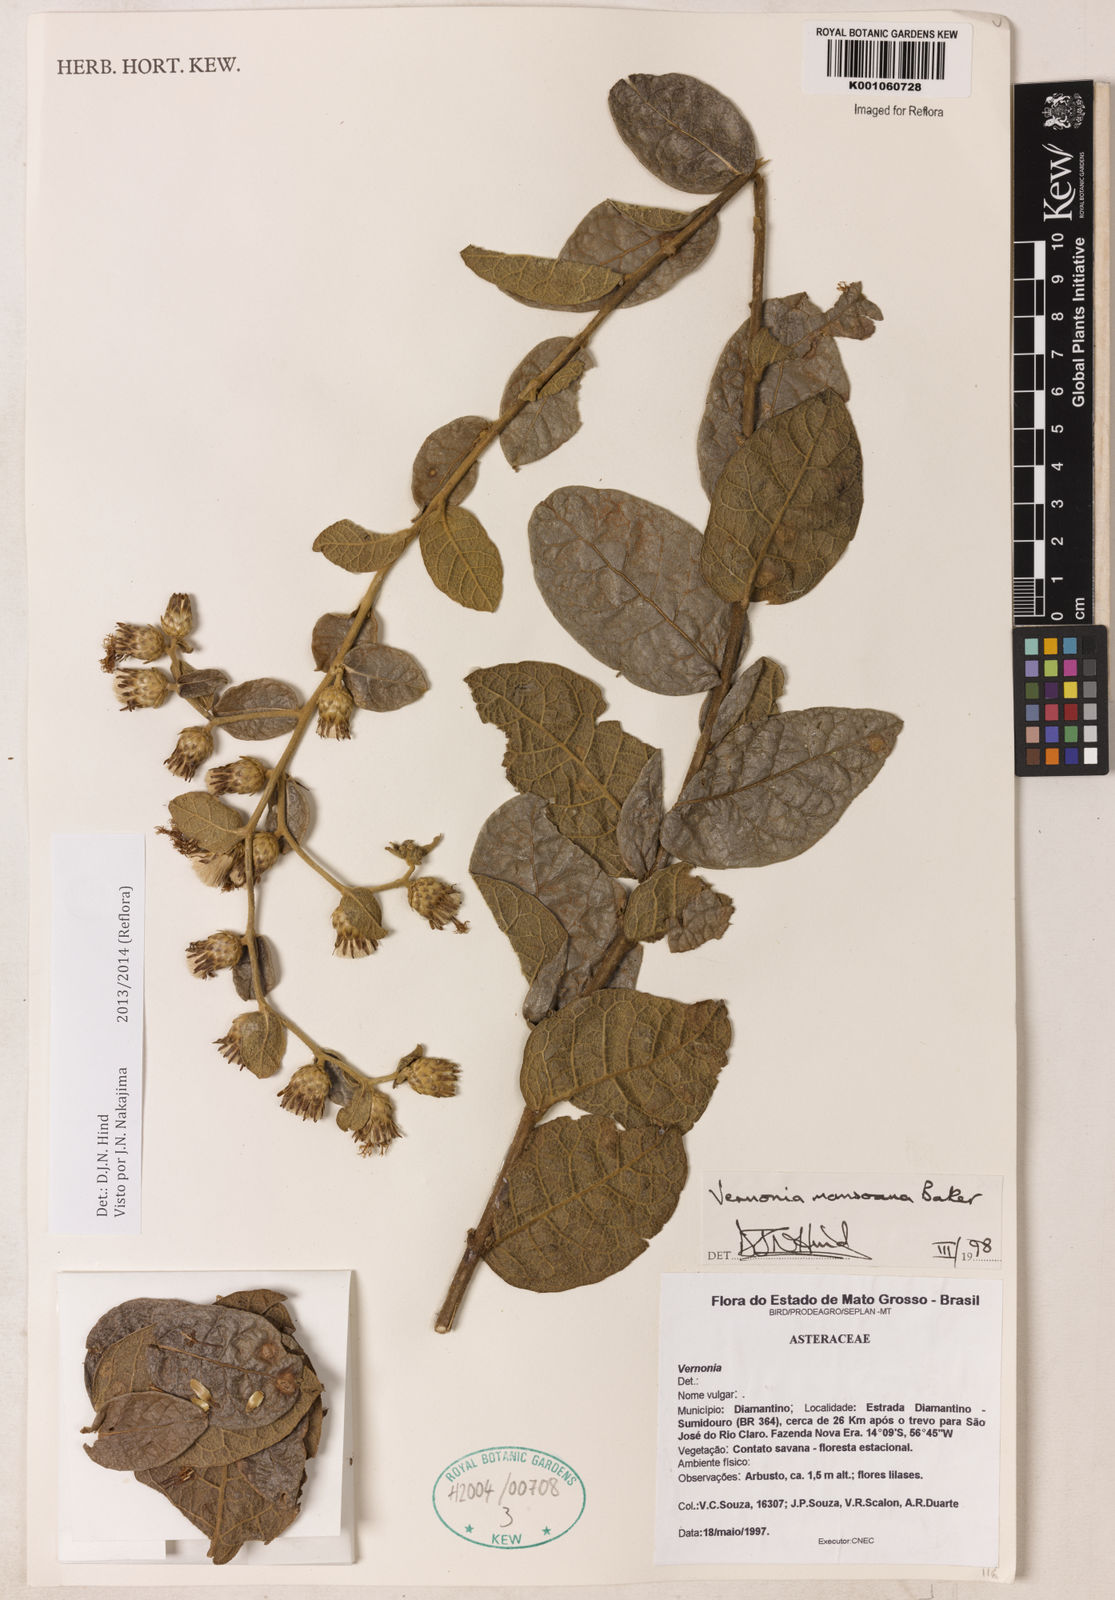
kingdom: Plantae
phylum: Tracheophyta
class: Magnoliopsida
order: Asterales
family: Asteraceae
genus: Lessingianthus
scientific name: Lessingianthus mansoanus
